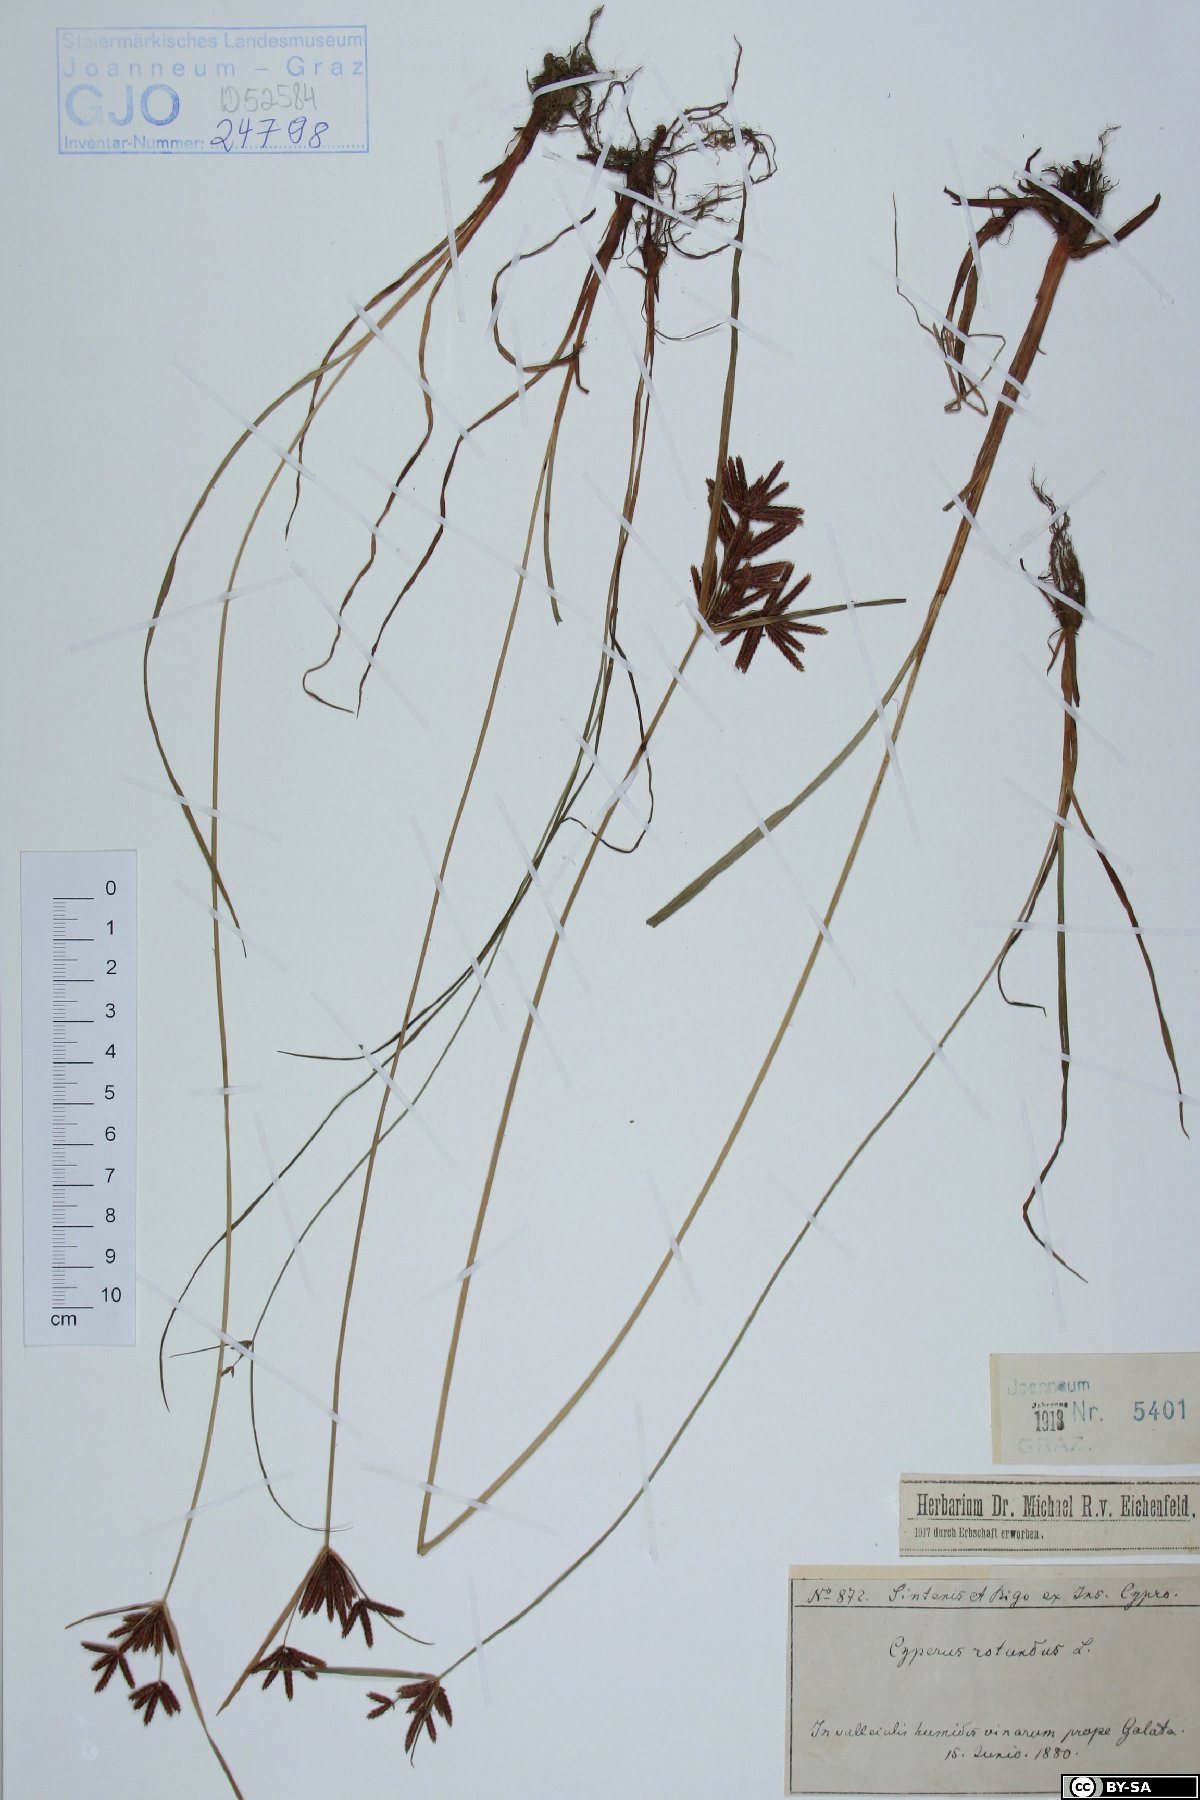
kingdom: Plantae
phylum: Tracheophyta
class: Liliopsida
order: Poales
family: Cyperaceae
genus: Cyperus
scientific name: Cyperus rotundus
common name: Nutgrass
